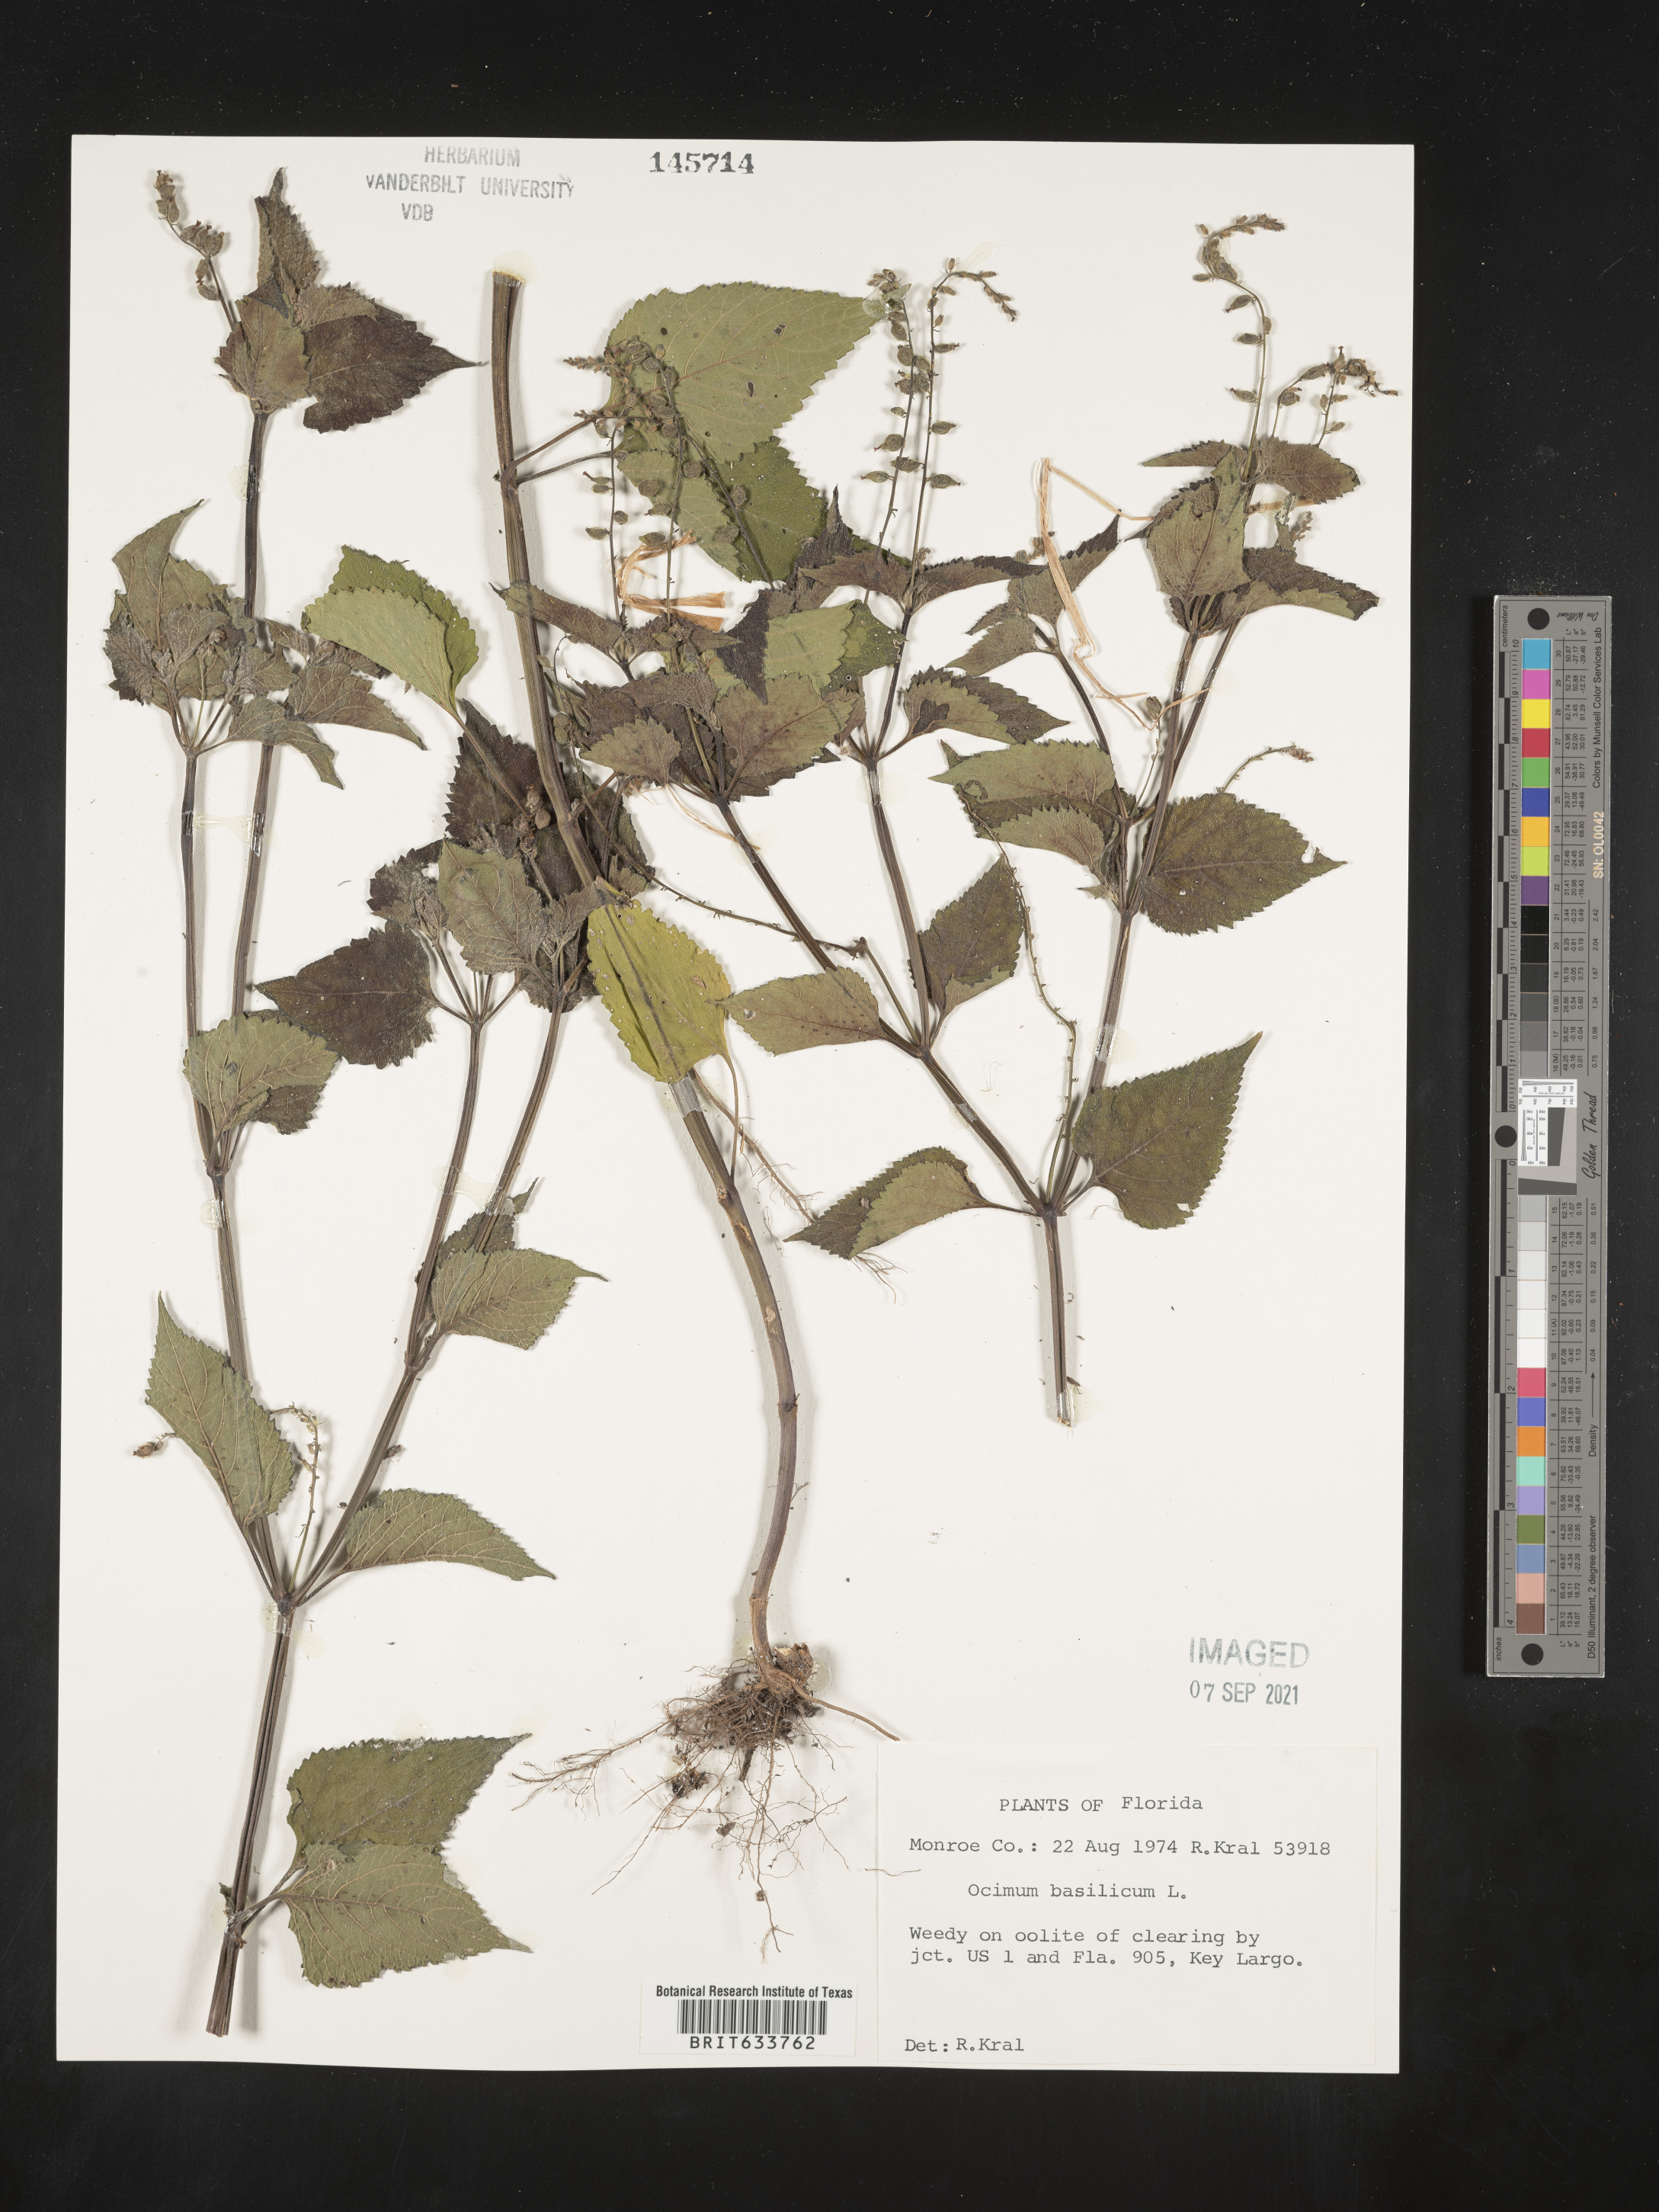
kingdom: Plantae
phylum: Tracheophyta
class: Magnoliopsida
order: Lamiales
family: Lamiaceae
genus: Ocimum
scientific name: Ocimum
